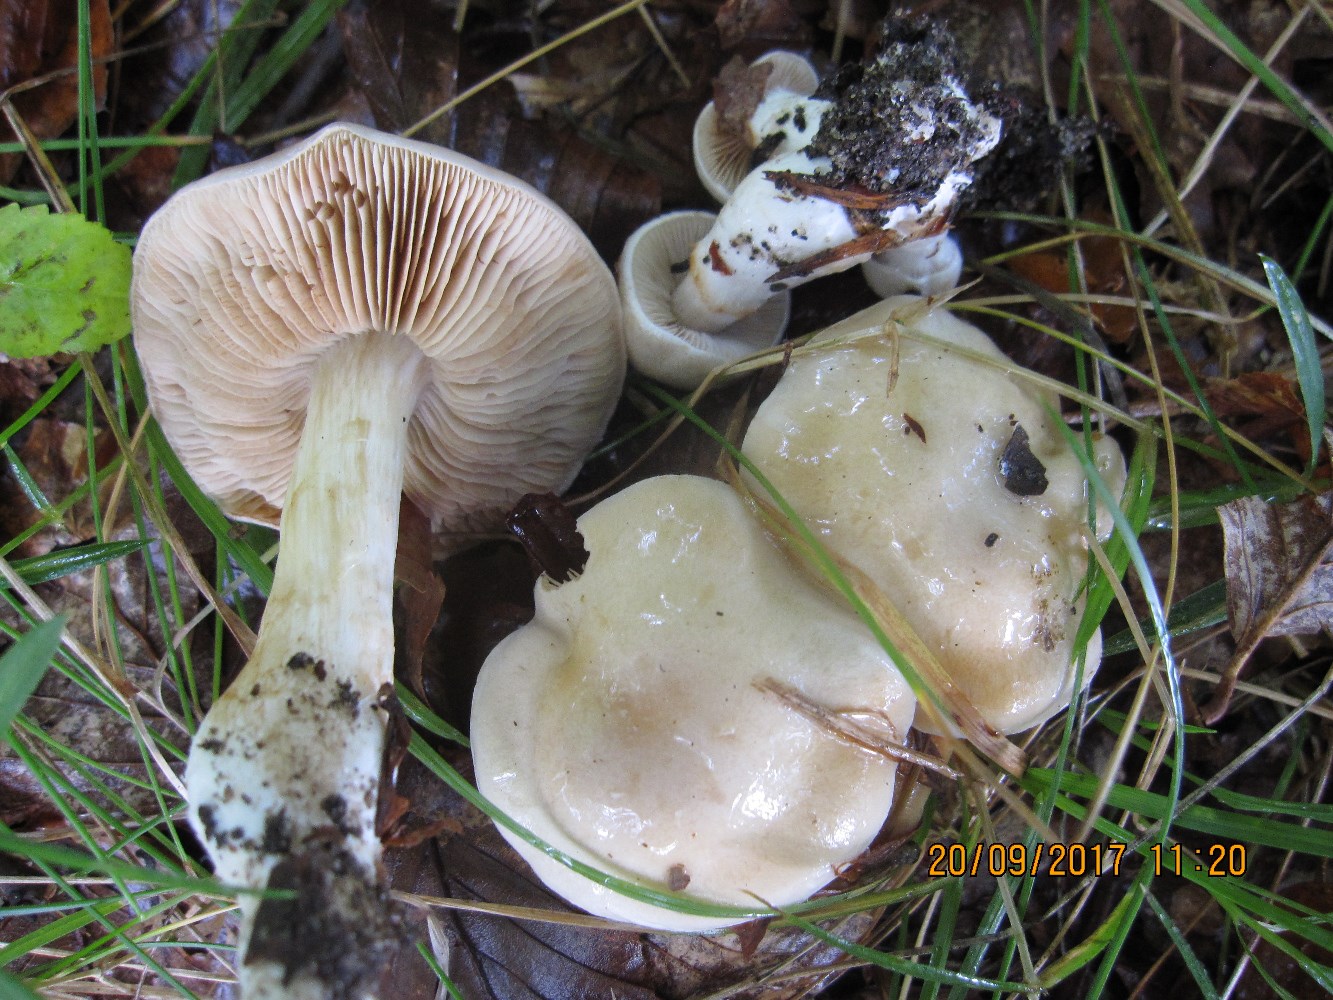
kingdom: Fungi
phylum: Basidiomycota
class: Agaricomycetes
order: Agaricales
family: Cortinariaceae
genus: Thaxterogaster
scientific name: Thaxterogaster barbatus
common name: elfenbens-slørhat
